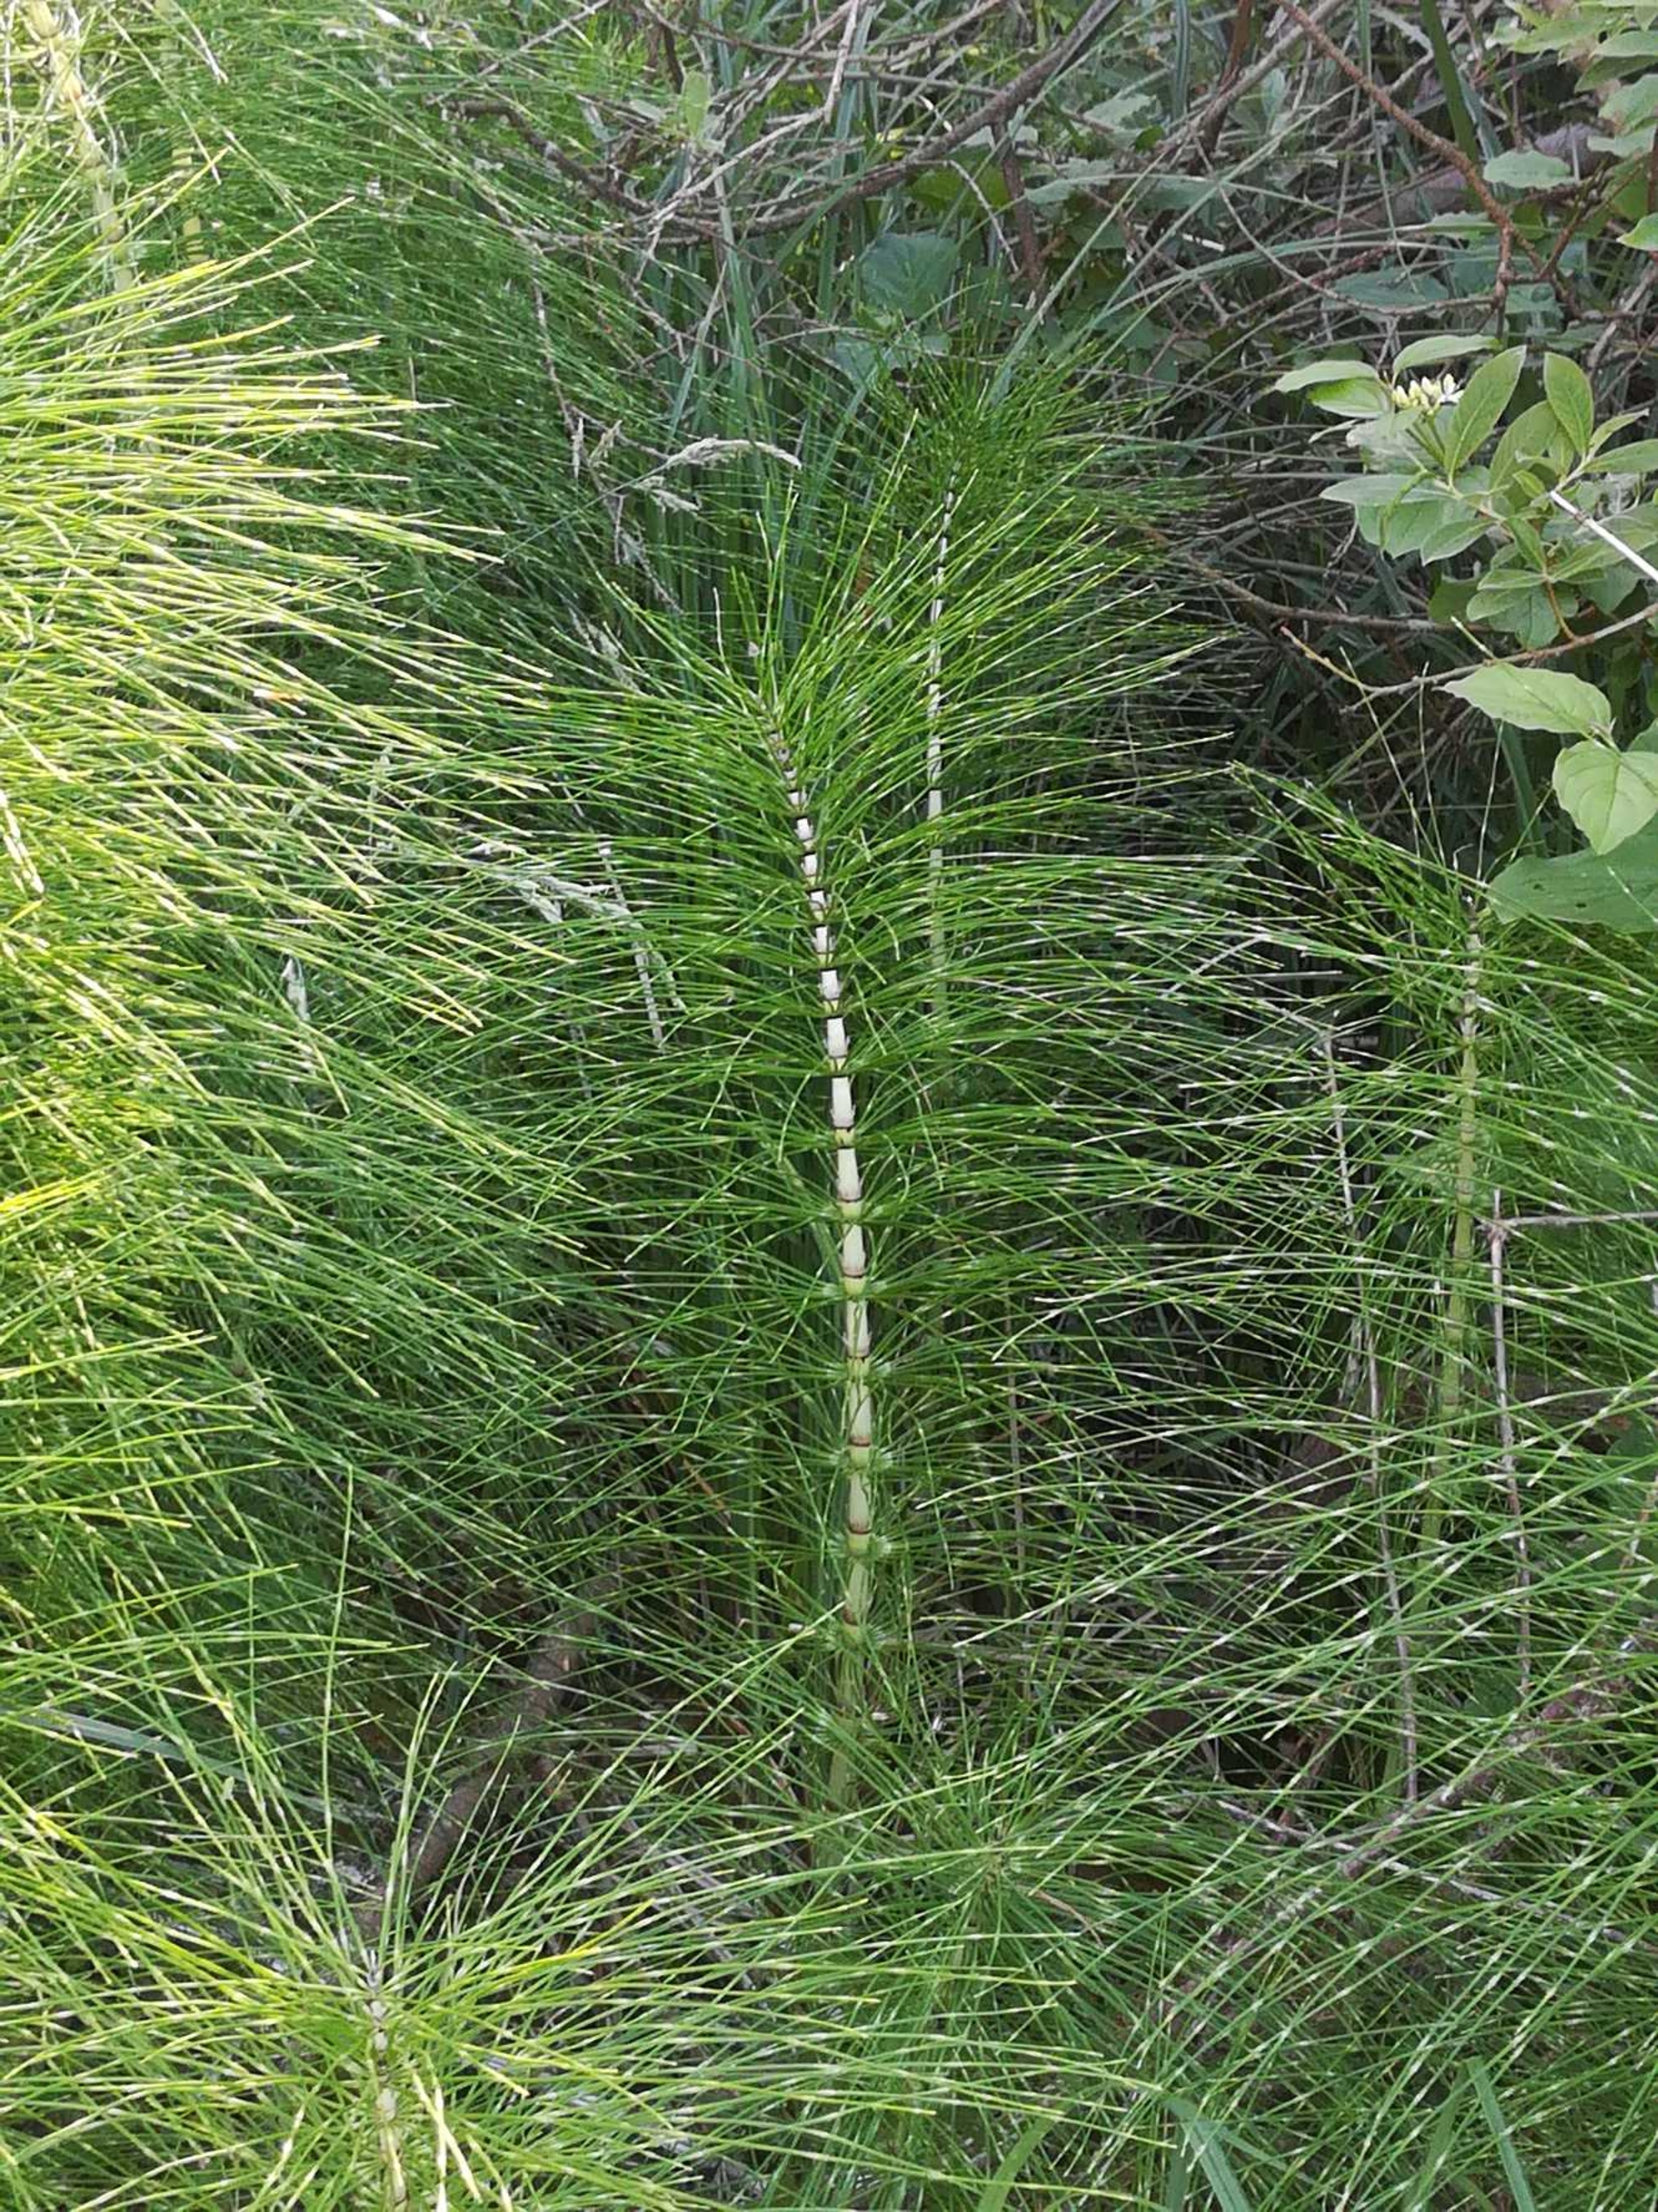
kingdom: Plantae
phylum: Tracheophyta
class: Polypodiopsida
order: Equisetales
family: Equisetaceae
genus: Equisetum
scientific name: Equisetum telmateia
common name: Elfenbens-padderok
